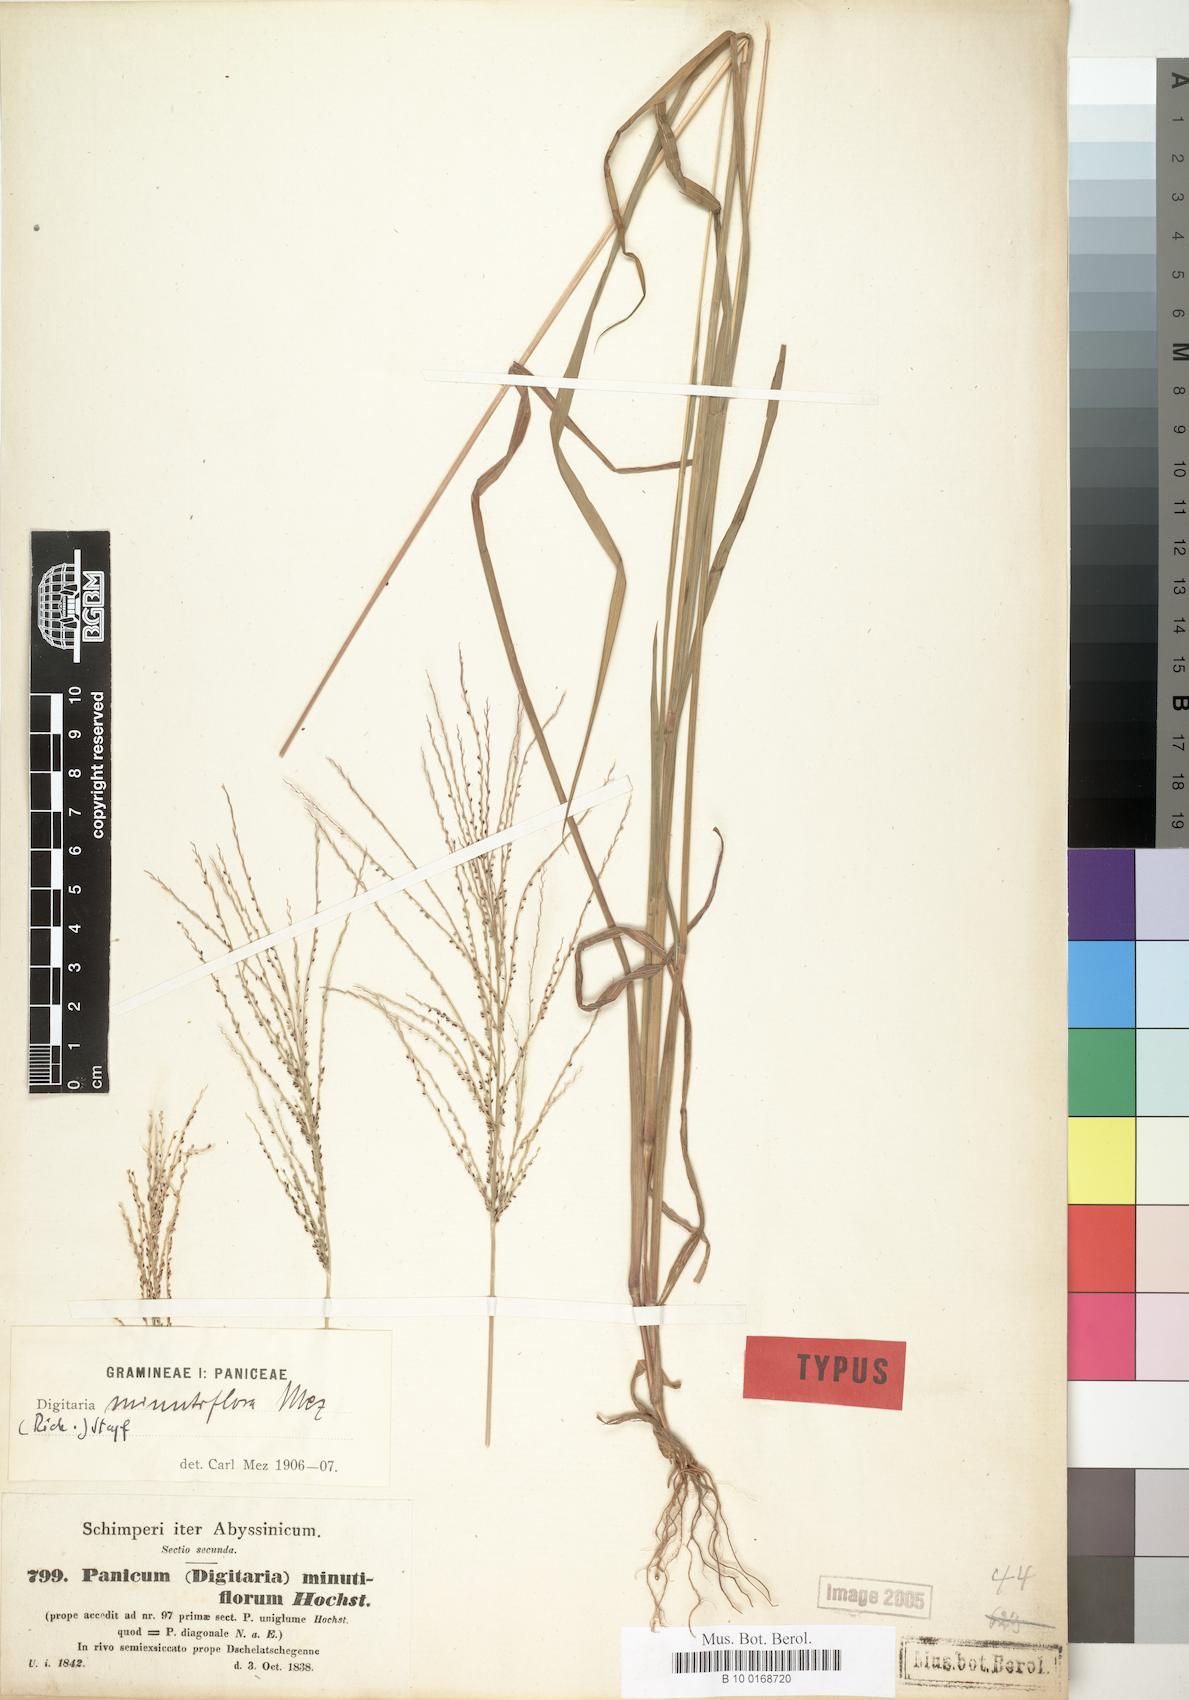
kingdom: Plantae
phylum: Tracheophyta
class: Liliopsida
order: Poales
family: Poaceae
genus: Steinchisma
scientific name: Steinchisma exiguiflorum
